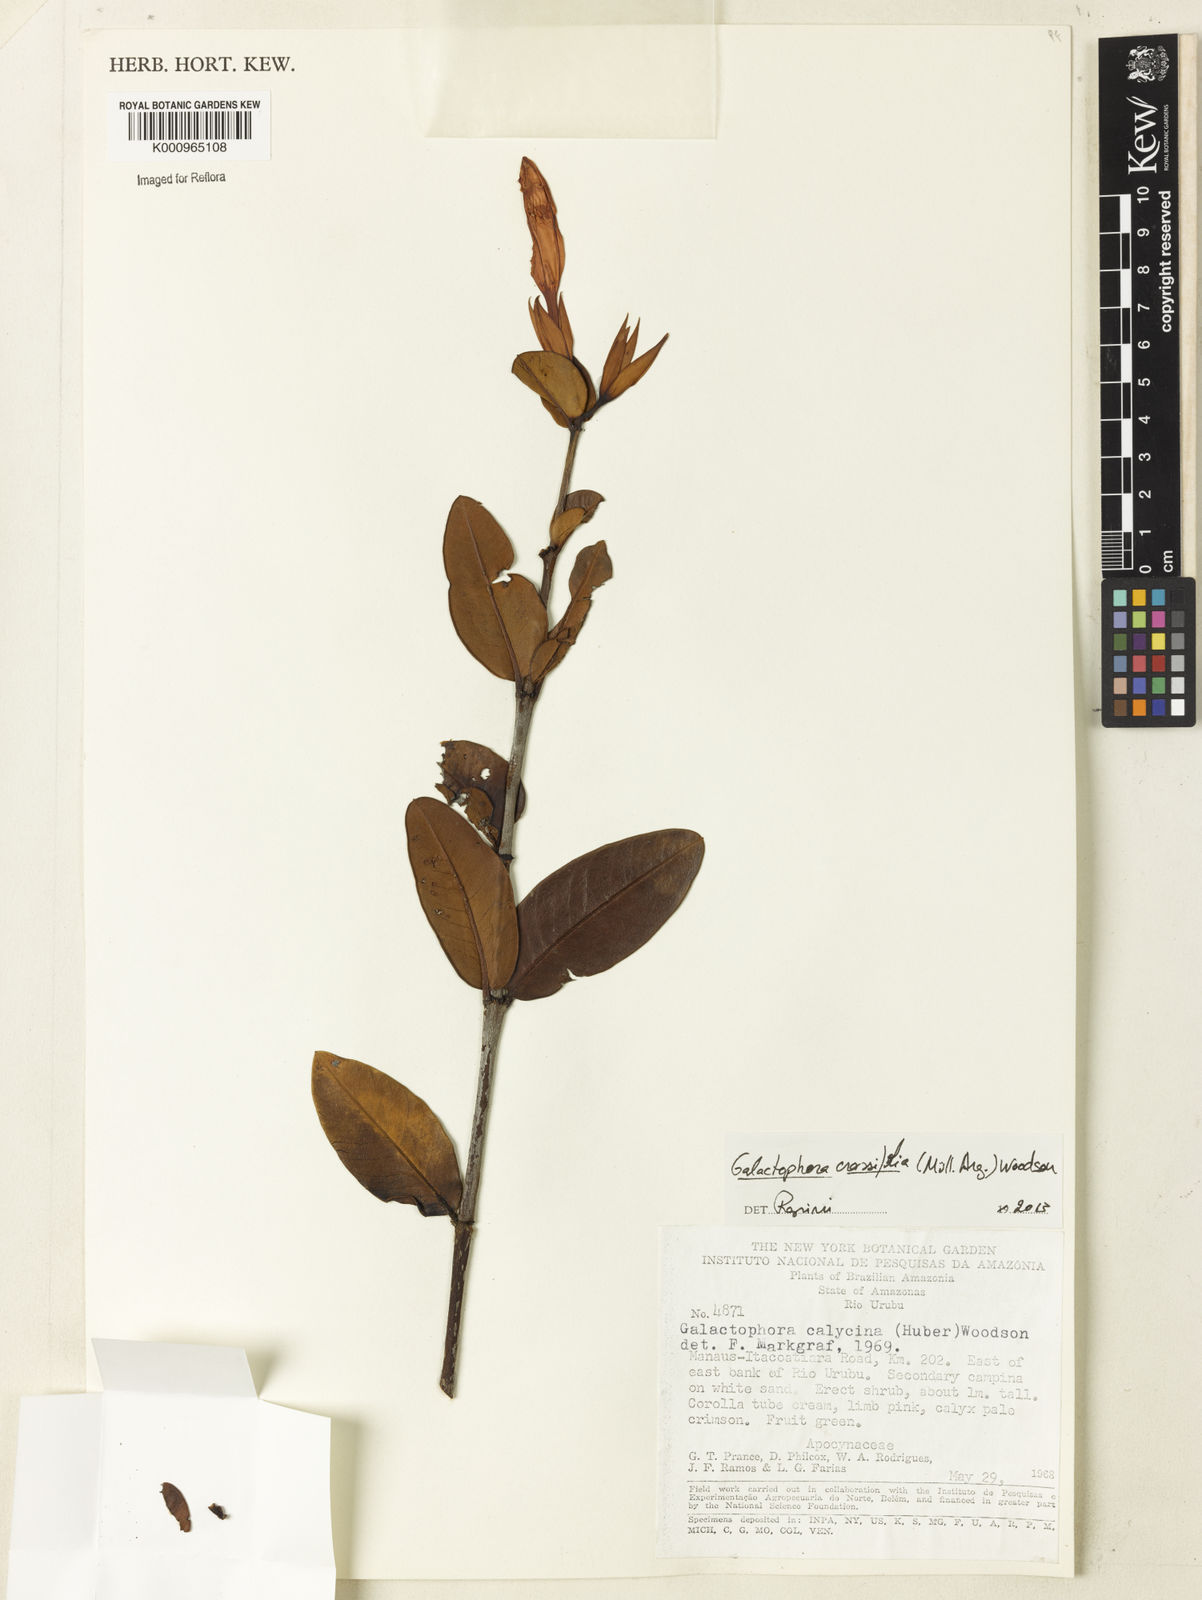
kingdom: Plantae
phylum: Tracheophyta
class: Magnoliopsida
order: Gentianales
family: Apocynaceae
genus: Galactophora
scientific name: Galactophora
